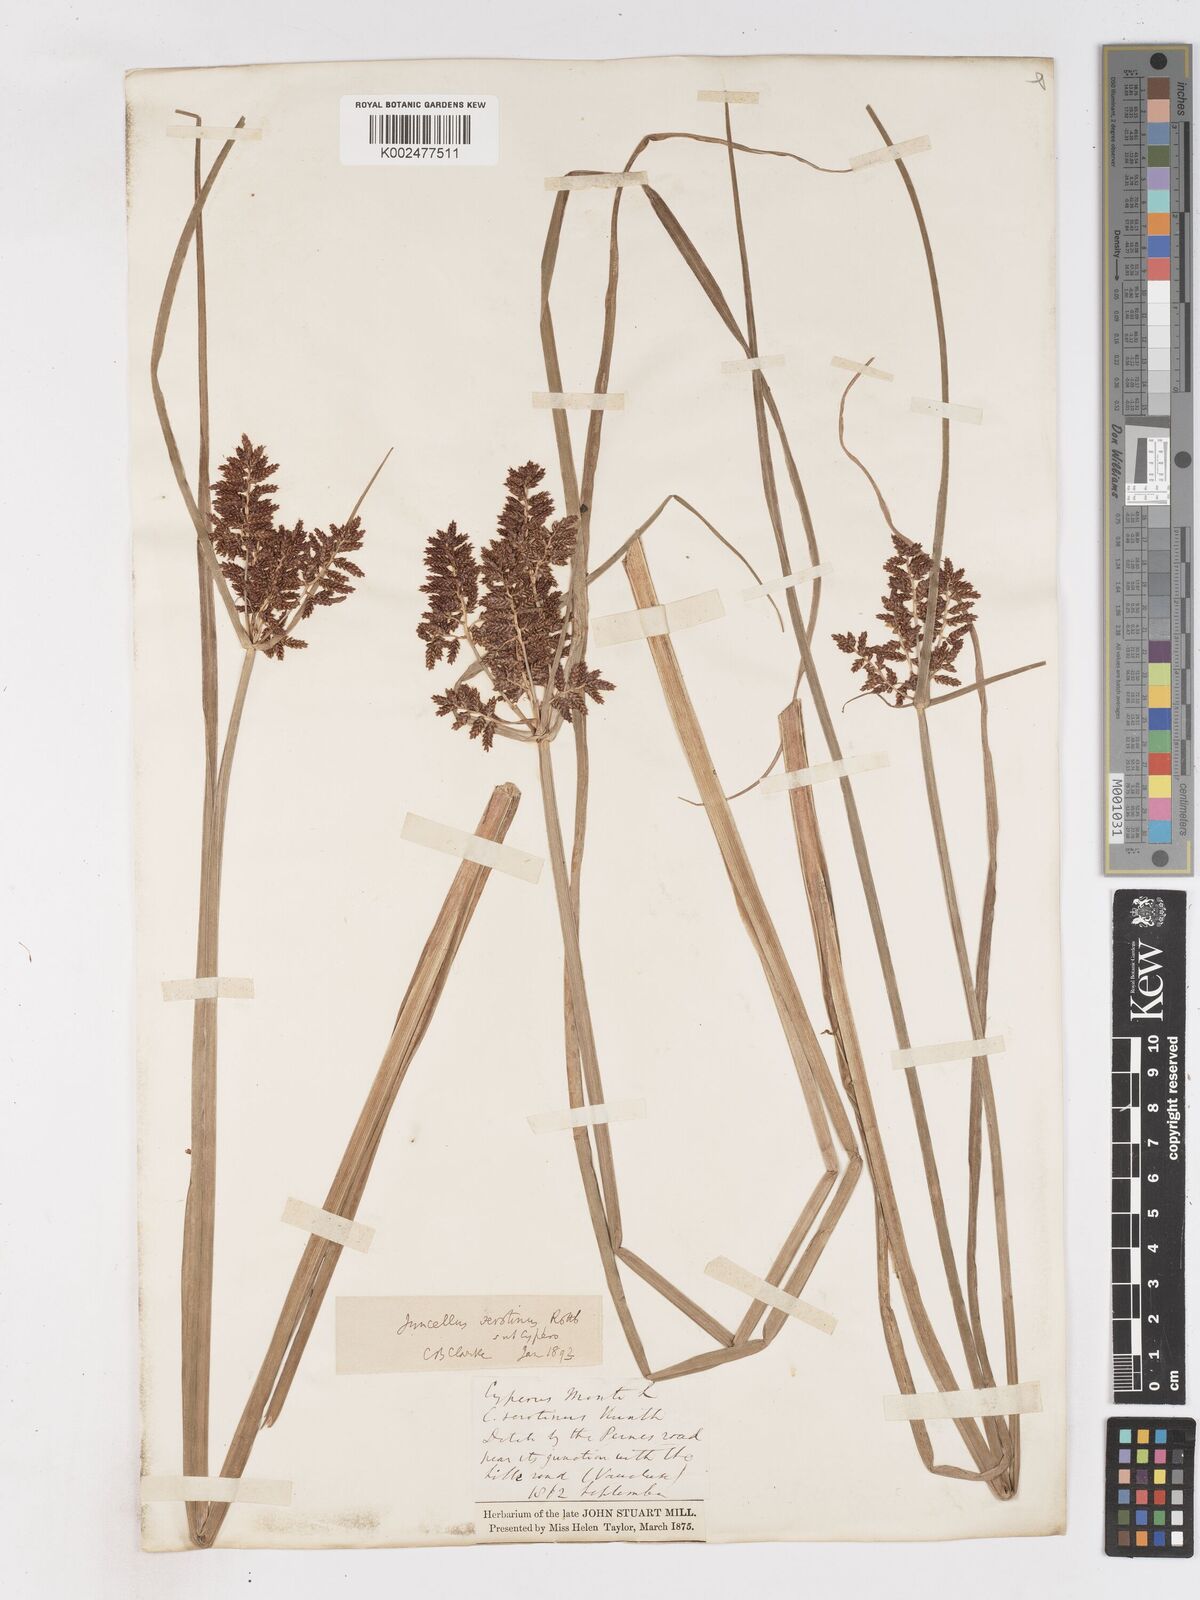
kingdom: Plantae
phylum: Tracheophyta
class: Liliopsida
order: Poales
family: Cyperaceae
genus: Cyperus
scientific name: Cyperus serotinus
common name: Tidalmarsh flatsedge
